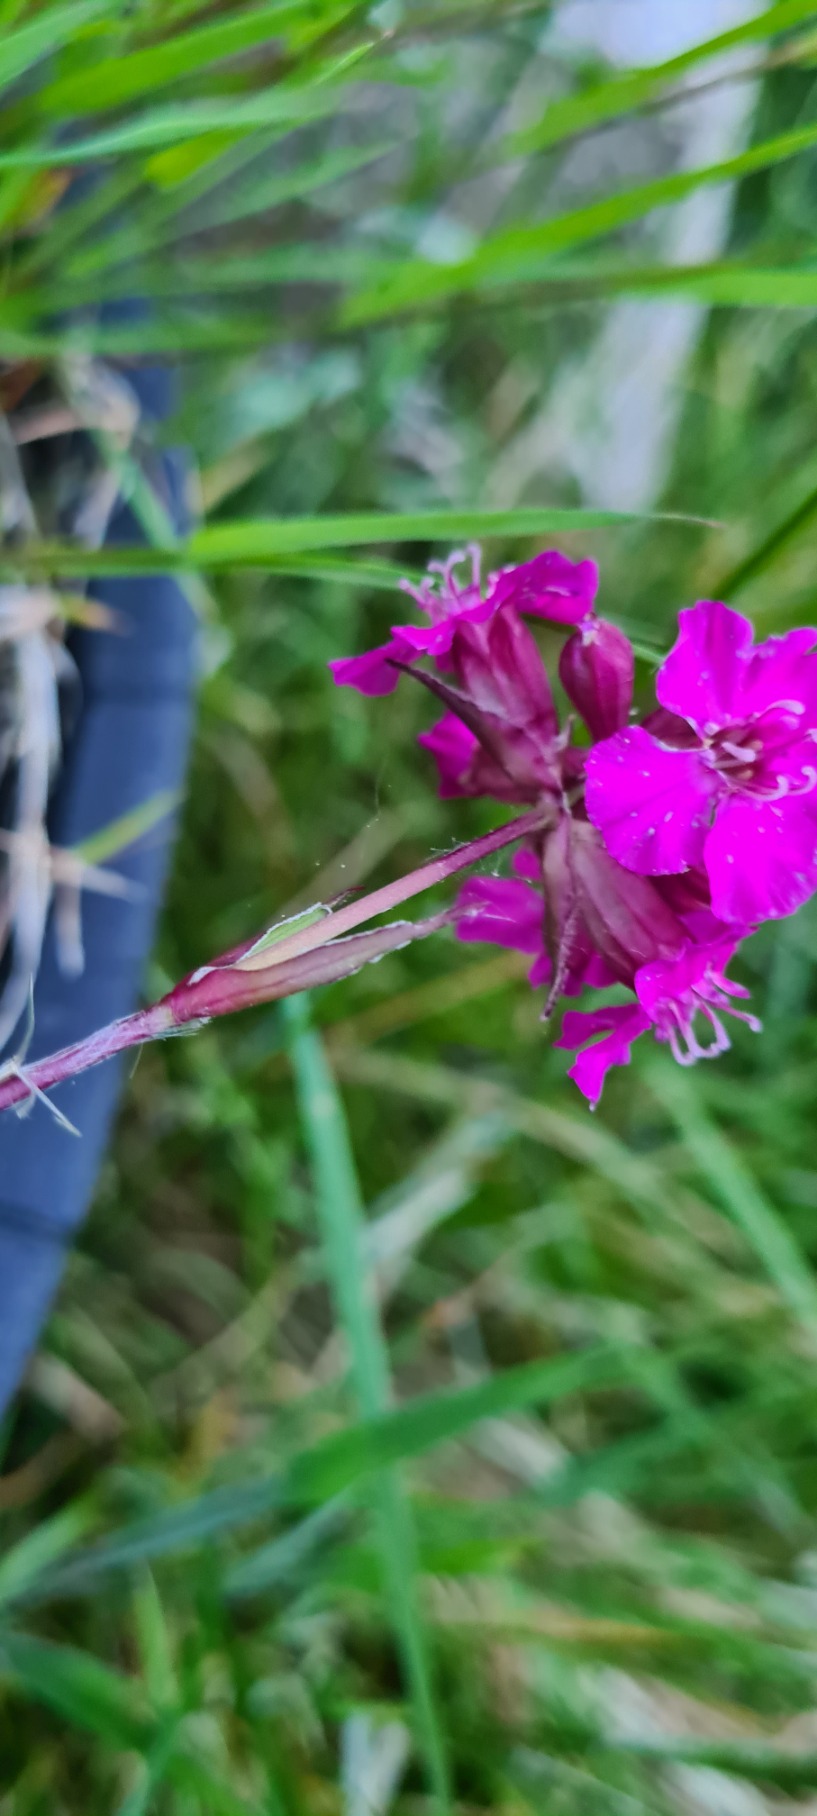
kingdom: Plantae
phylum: Tracheophyta
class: Magnoliopsida
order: Caryophyllales
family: Caryophyllaceae
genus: Viscaria
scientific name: Viscaria vulgaris
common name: Tjærenellike
